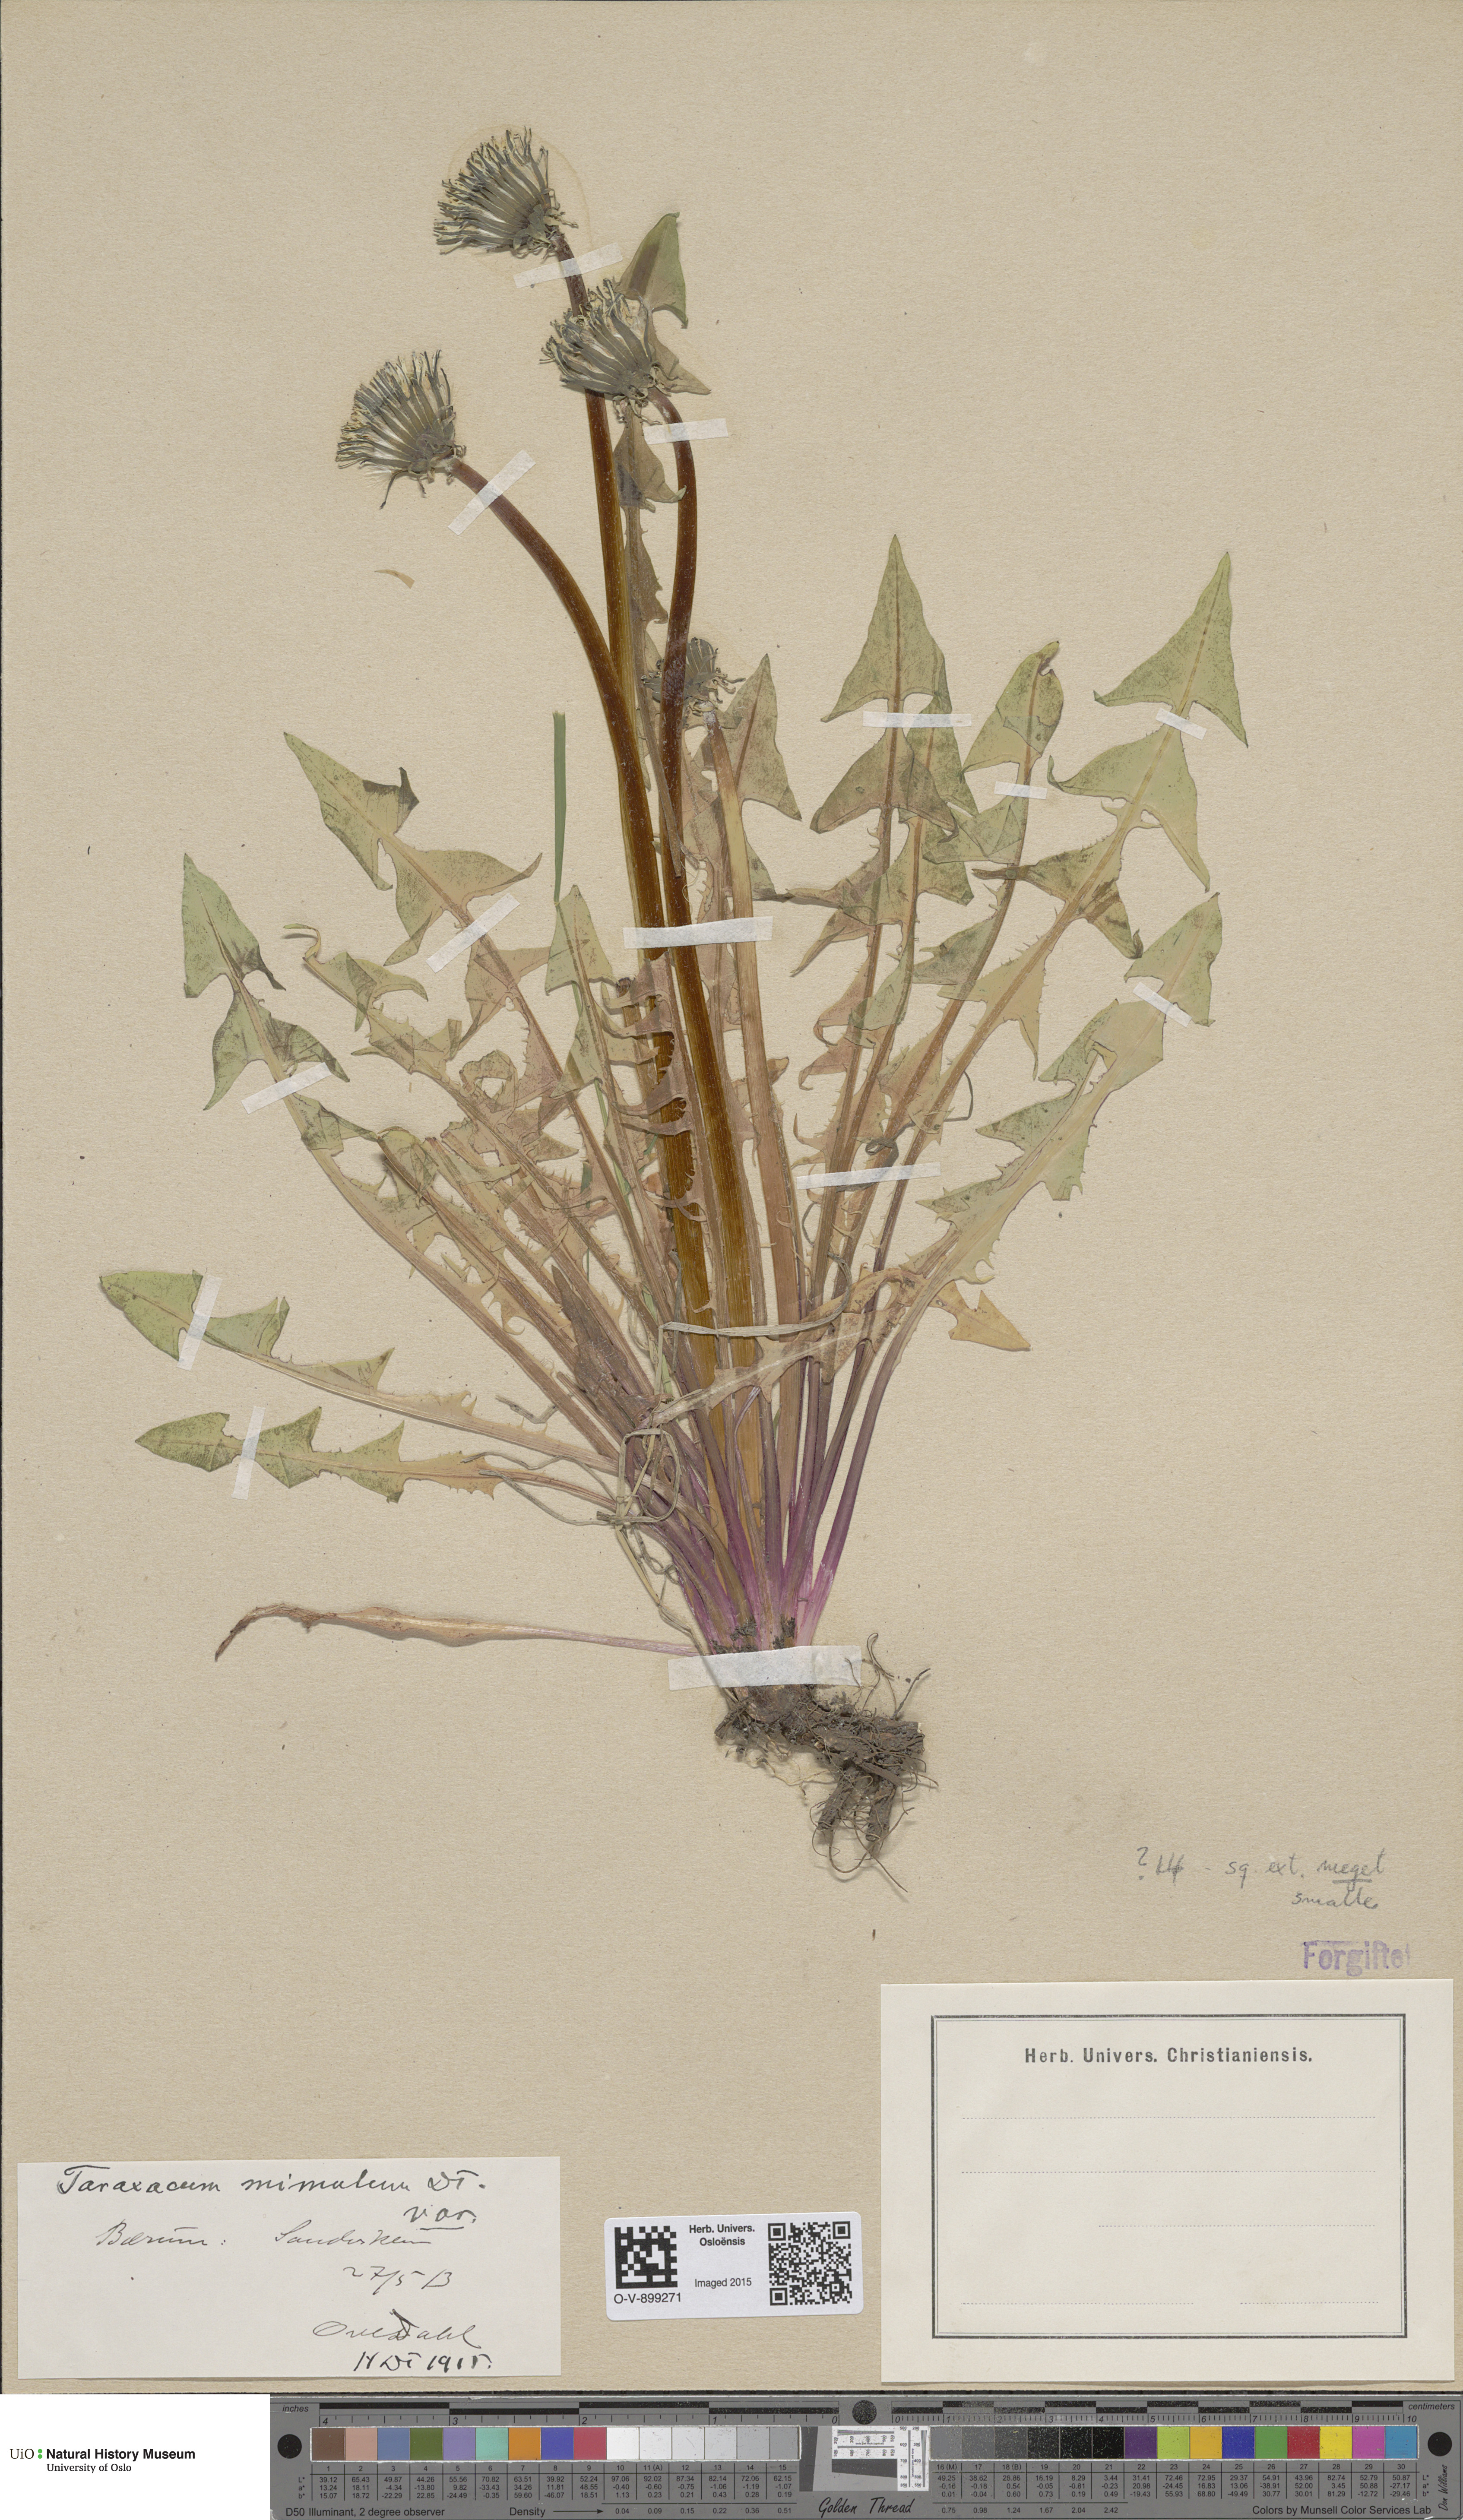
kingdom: Plantae
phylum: Tracheophyta
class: Magnoliopsida
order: Asterales
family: Asteraceae
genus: Taraxacum
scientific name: Taraxacum mimulum
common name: Sharp-lobed dandelion
